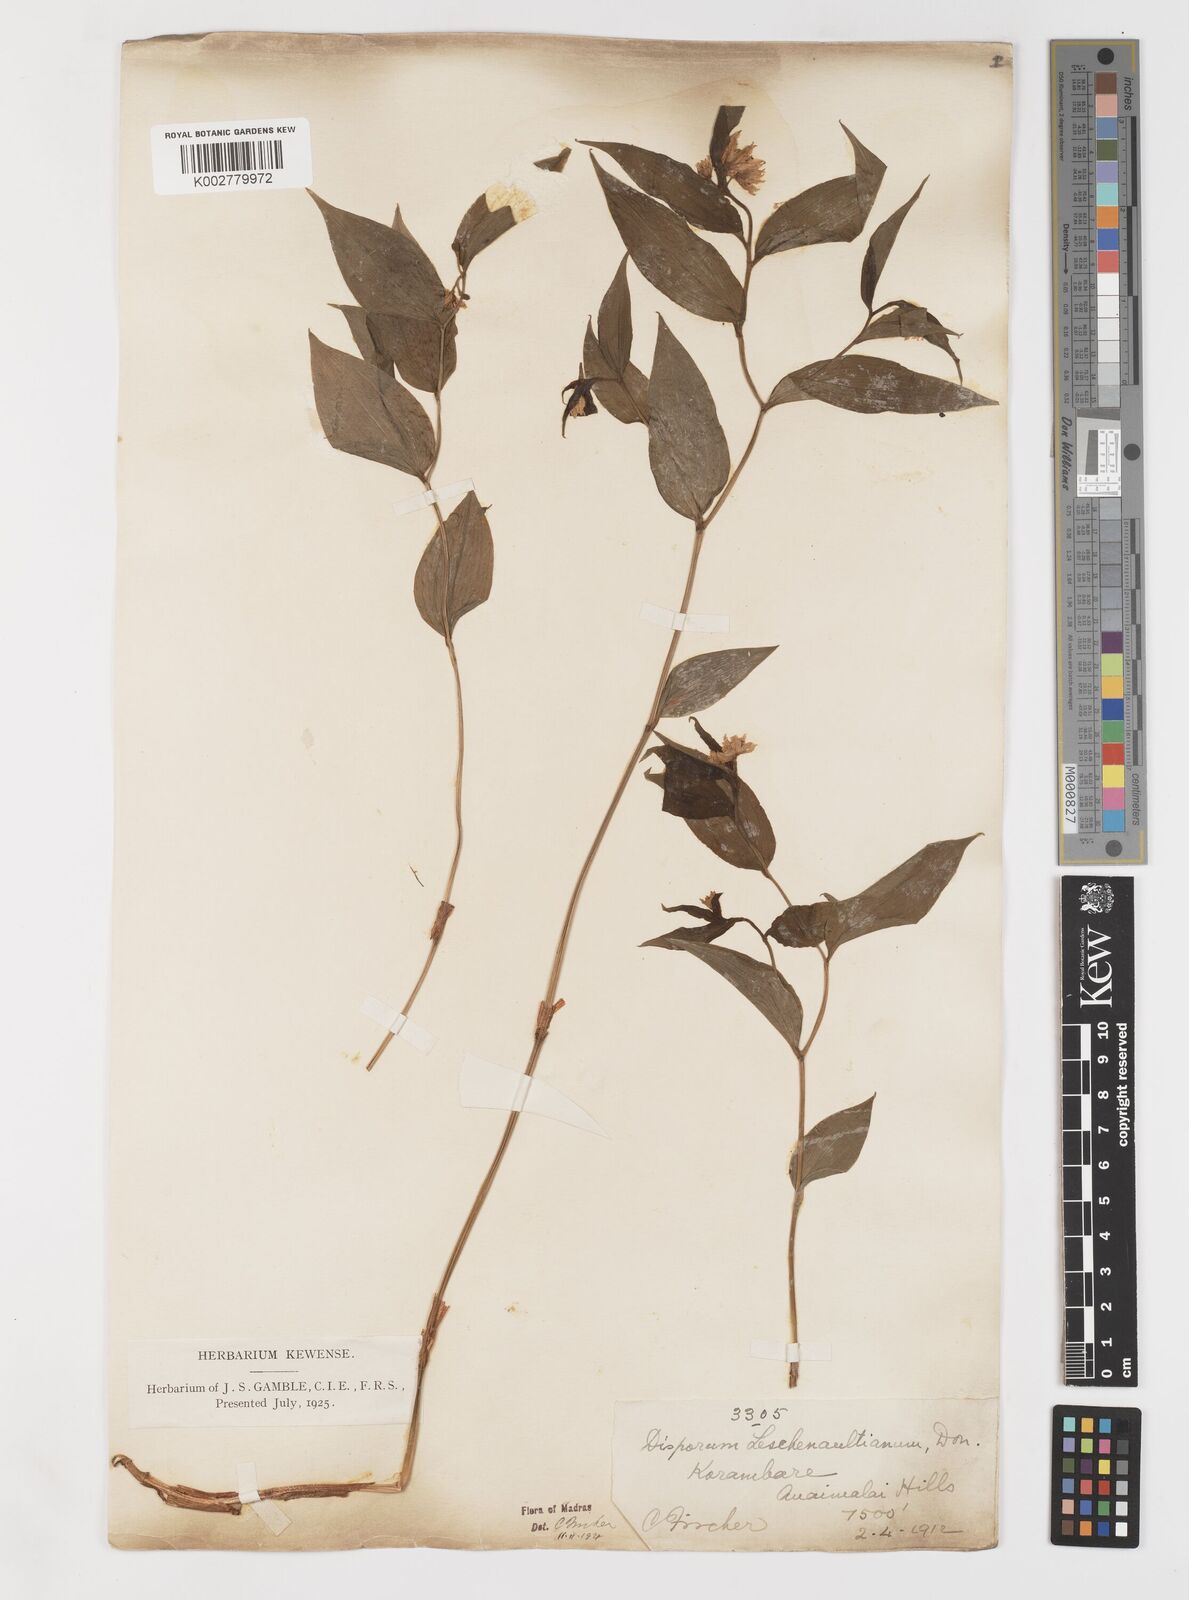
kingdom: Plantae
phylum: Tracheophyta
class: Liliopsida
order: Liliales
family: Colchicaceae
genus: Disporum
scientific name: Disporum cantoniense
